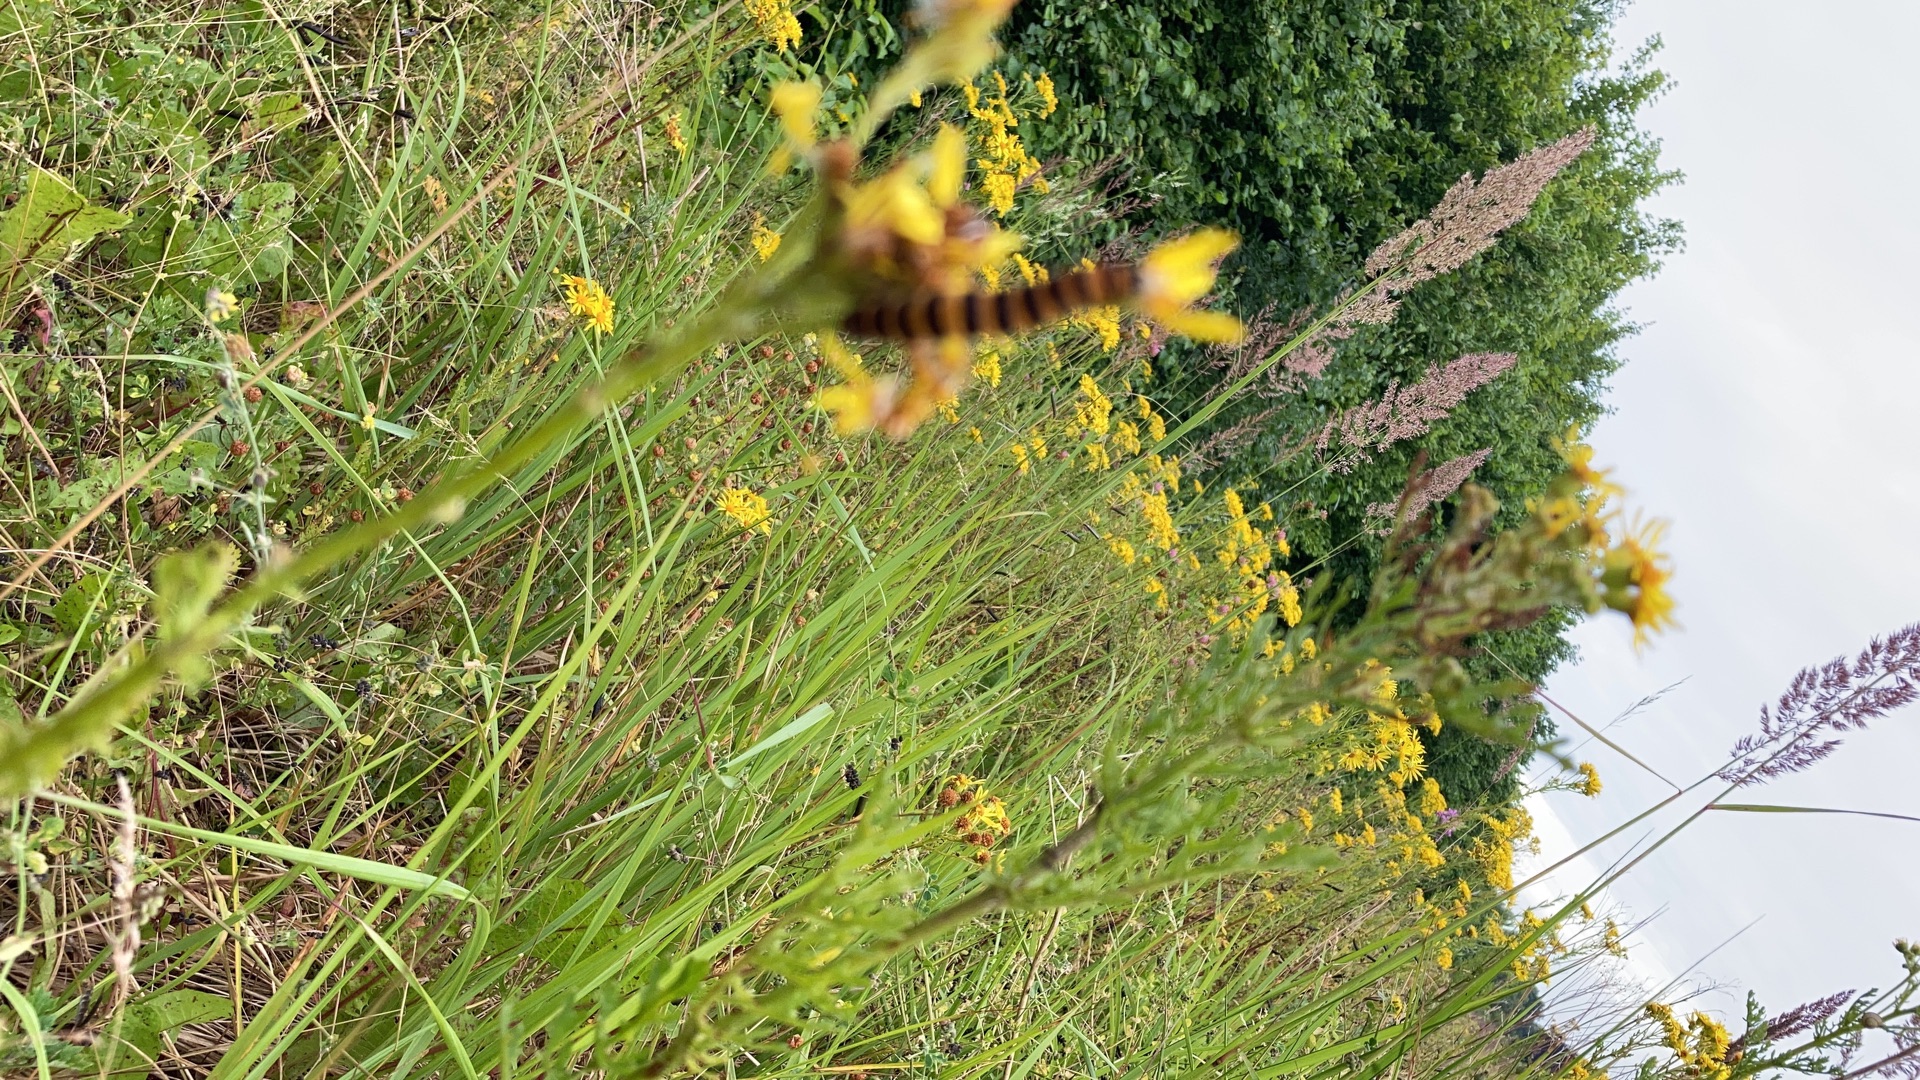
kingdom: Animalia
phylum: Arthropoda
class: Insecta
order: Lepidoptera
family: Erebidae
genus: Tyria
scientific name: Tyria jacobaeae
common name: Blodplet
